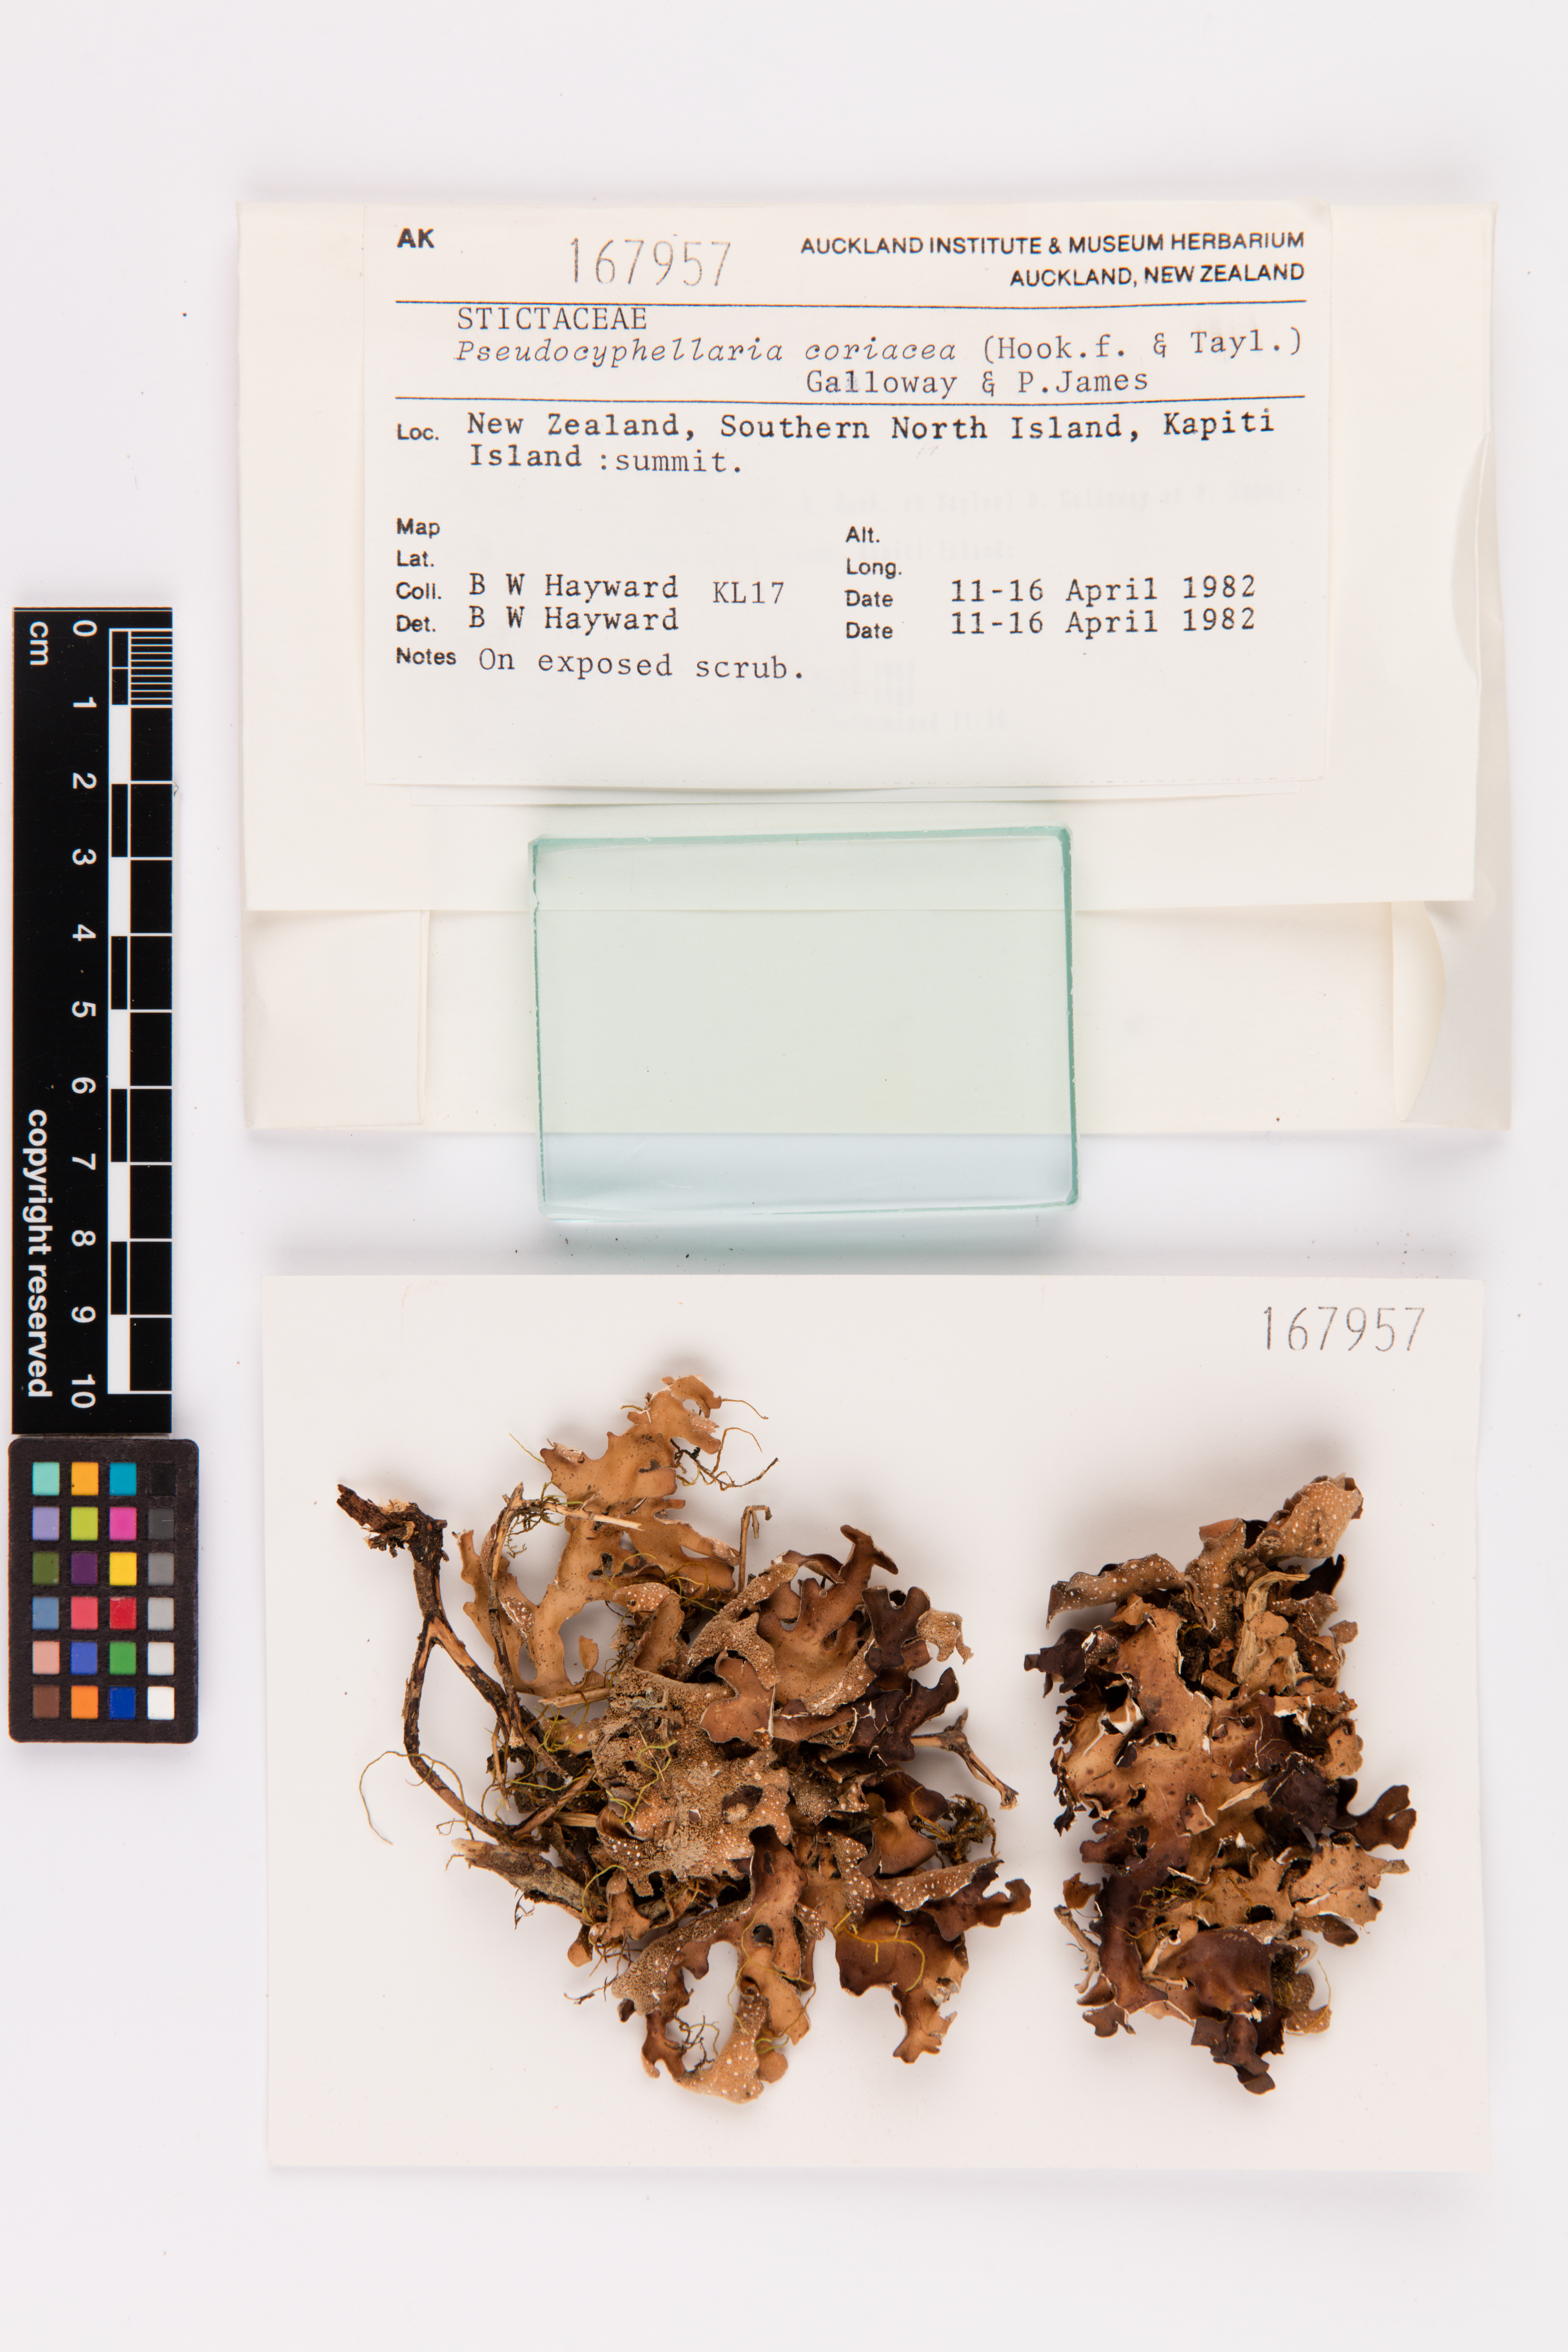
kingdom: Fungi
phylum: Ascomycota
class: Lecanoromycetes
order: Peltigerales
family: Lobariaceae
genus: Pseudocyphellaria
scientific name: Pseudocyphellaria coriacea
